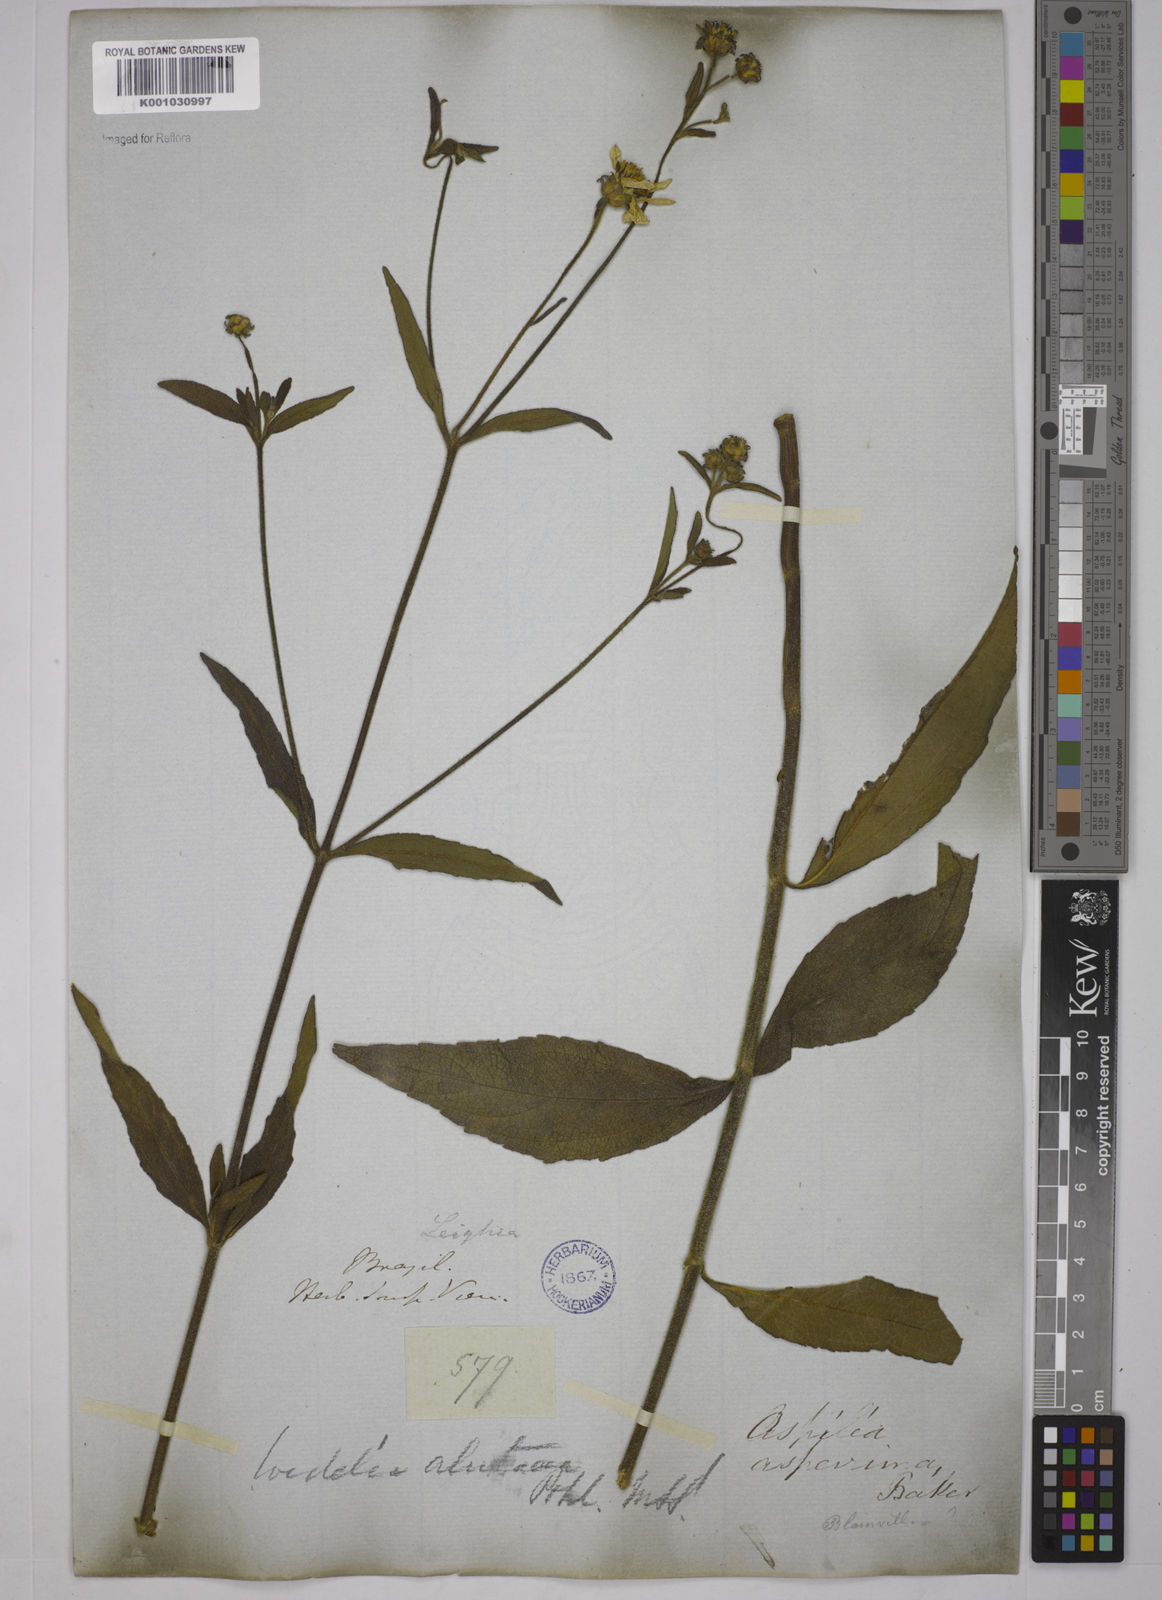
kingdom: Plantae
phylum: Tracheophyta
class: Magnoliopsida
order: Asterales
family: Asteraceae
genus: Wedelia
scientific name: Wedelia gardneri
